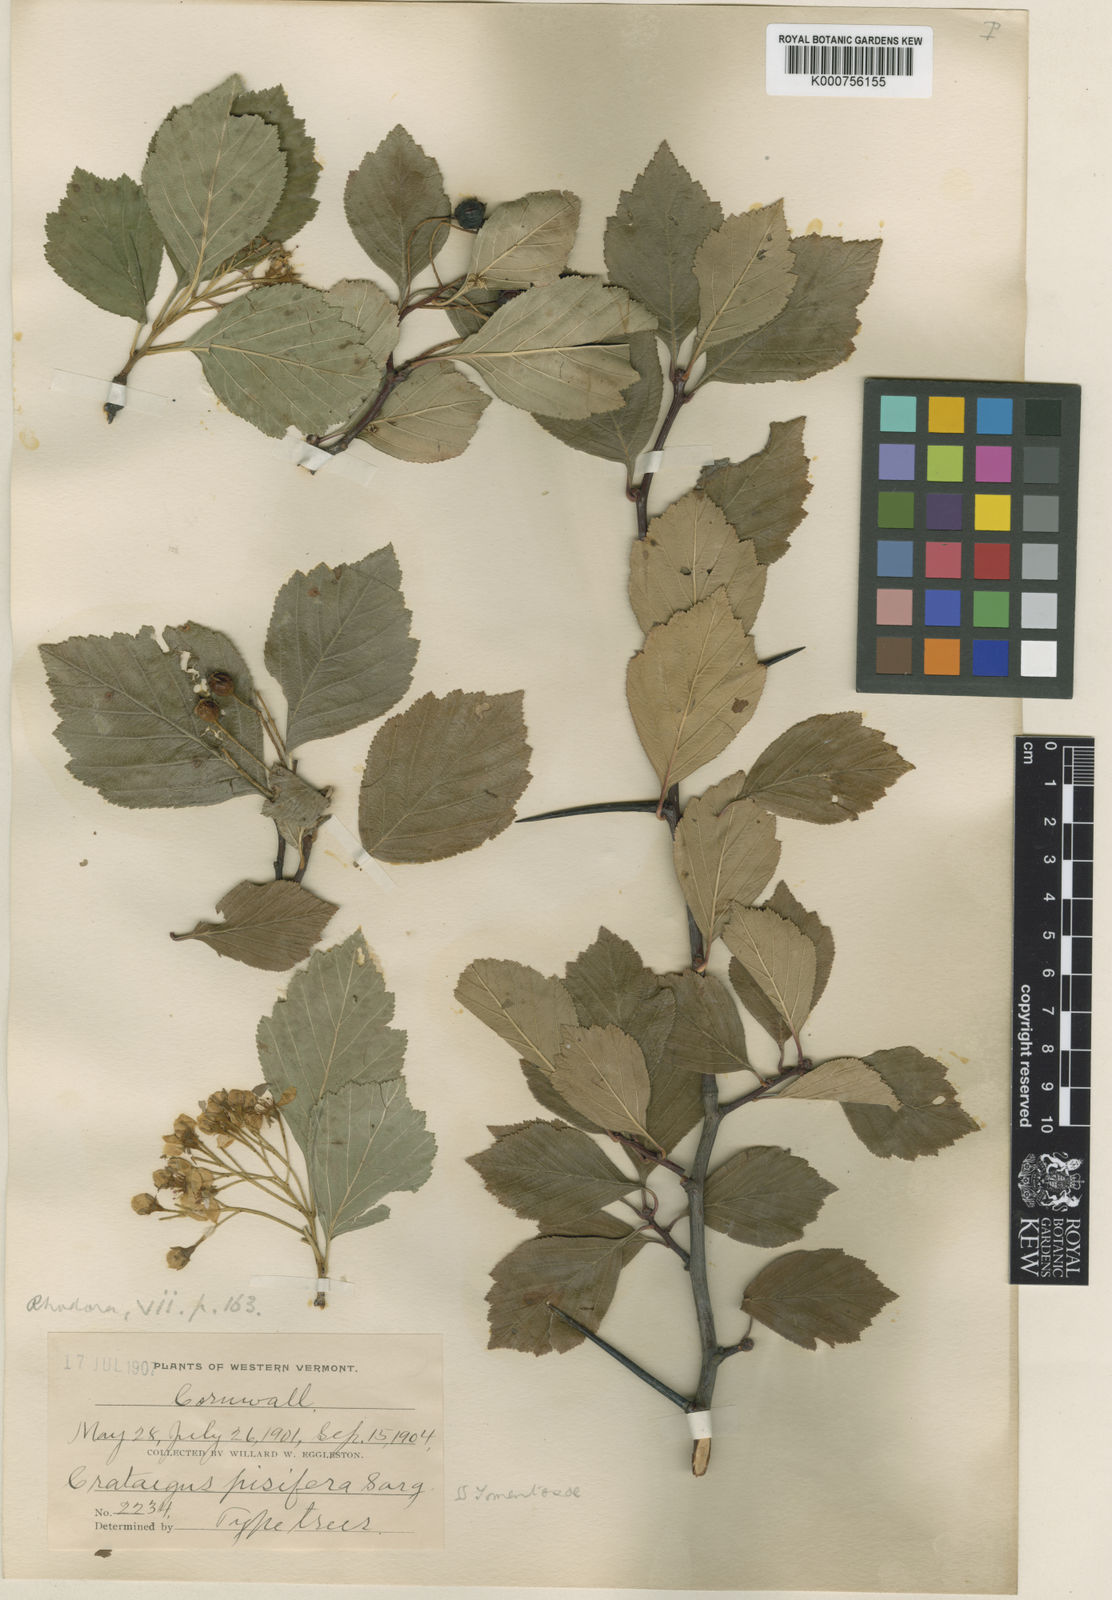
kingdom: Plantae
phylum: Tracheophyta
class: Magnoliopsida
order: Rosales
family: Rosaceae
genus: Crataegus
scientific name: Crataegus succulenta
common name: Fleshy hawthorn
